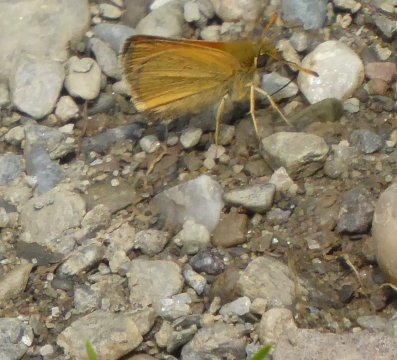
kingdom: Animalia
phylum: Arthropoda
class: Insecta
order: Lepidoptera
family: Hesperiidae
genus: Thymelicus
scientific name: Thymelicus lineola
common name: European Skipper
